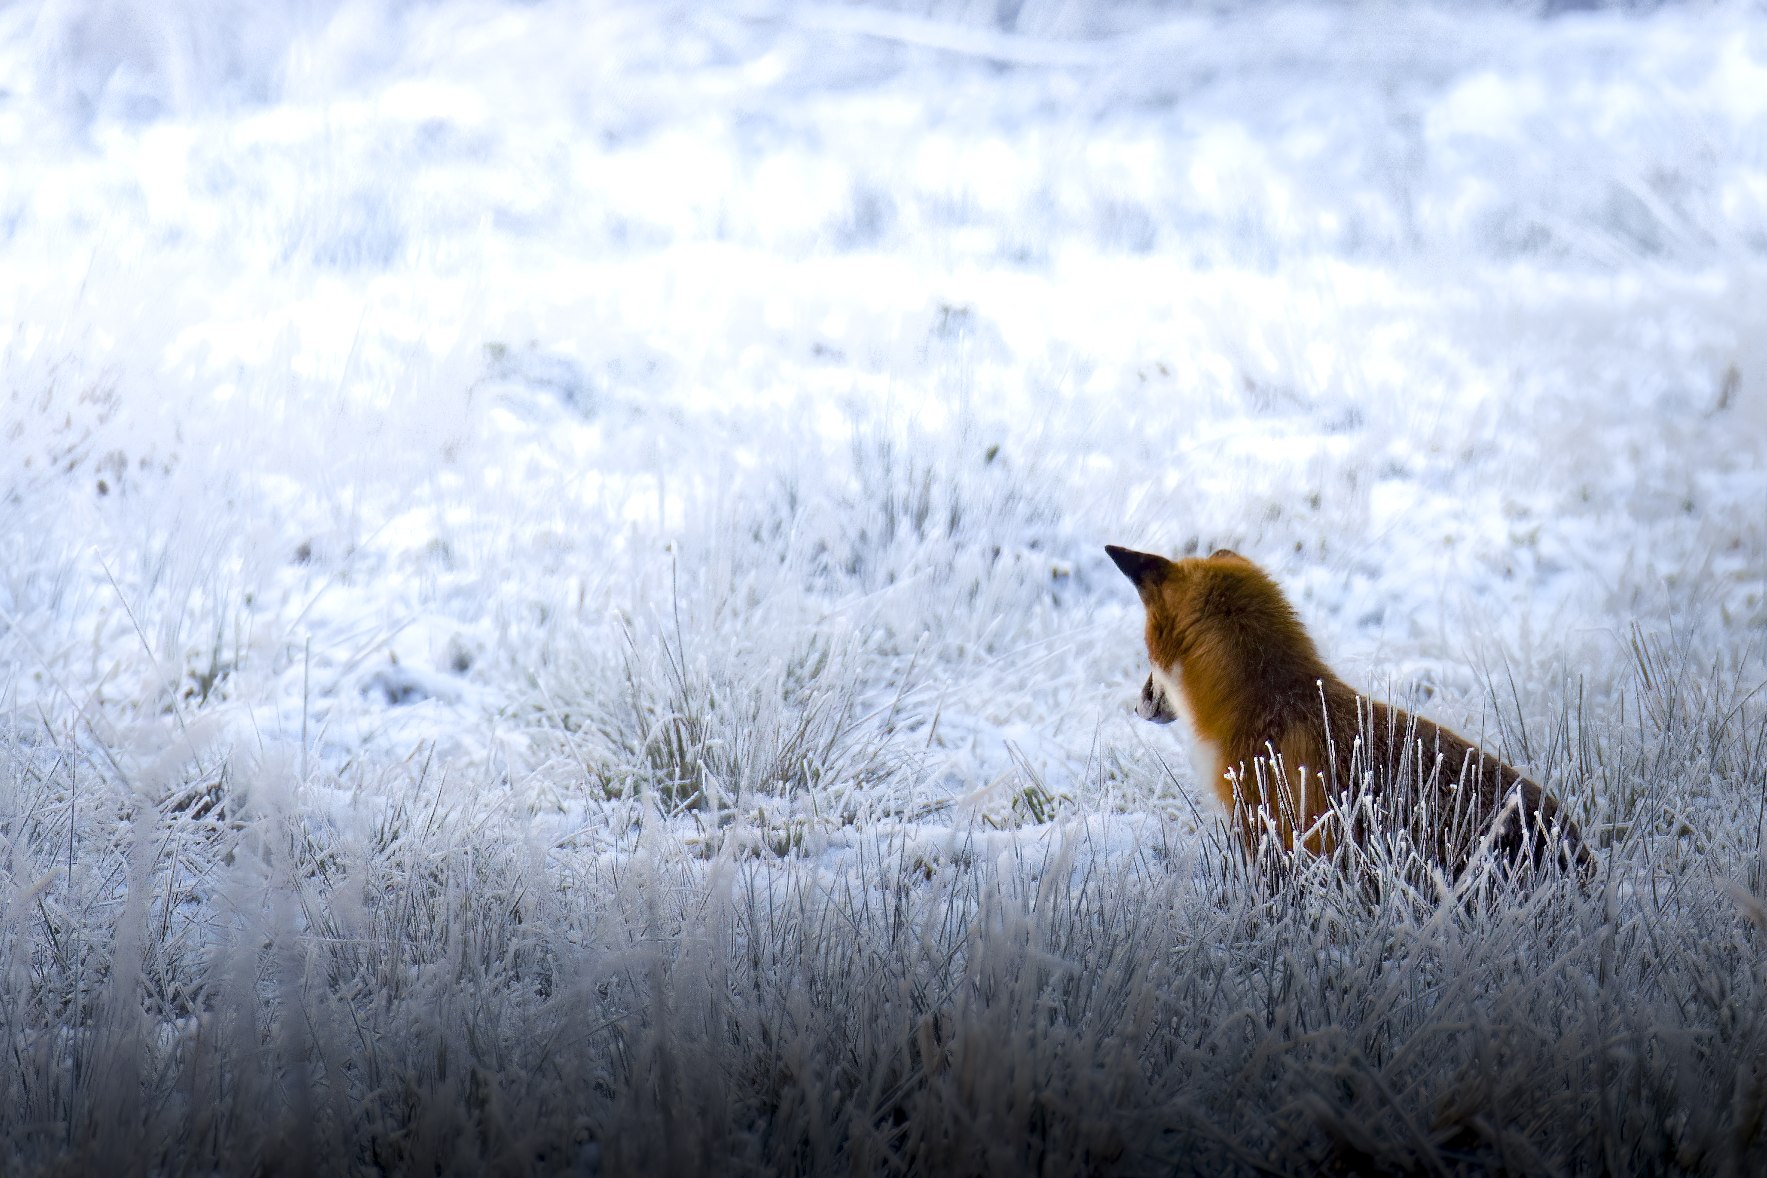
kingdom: Animalia
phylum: Chordata
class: Mammalia
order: Carnivora
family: Canidae
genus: Vulpes
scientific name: Vulpes vulpes
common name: Ræv
